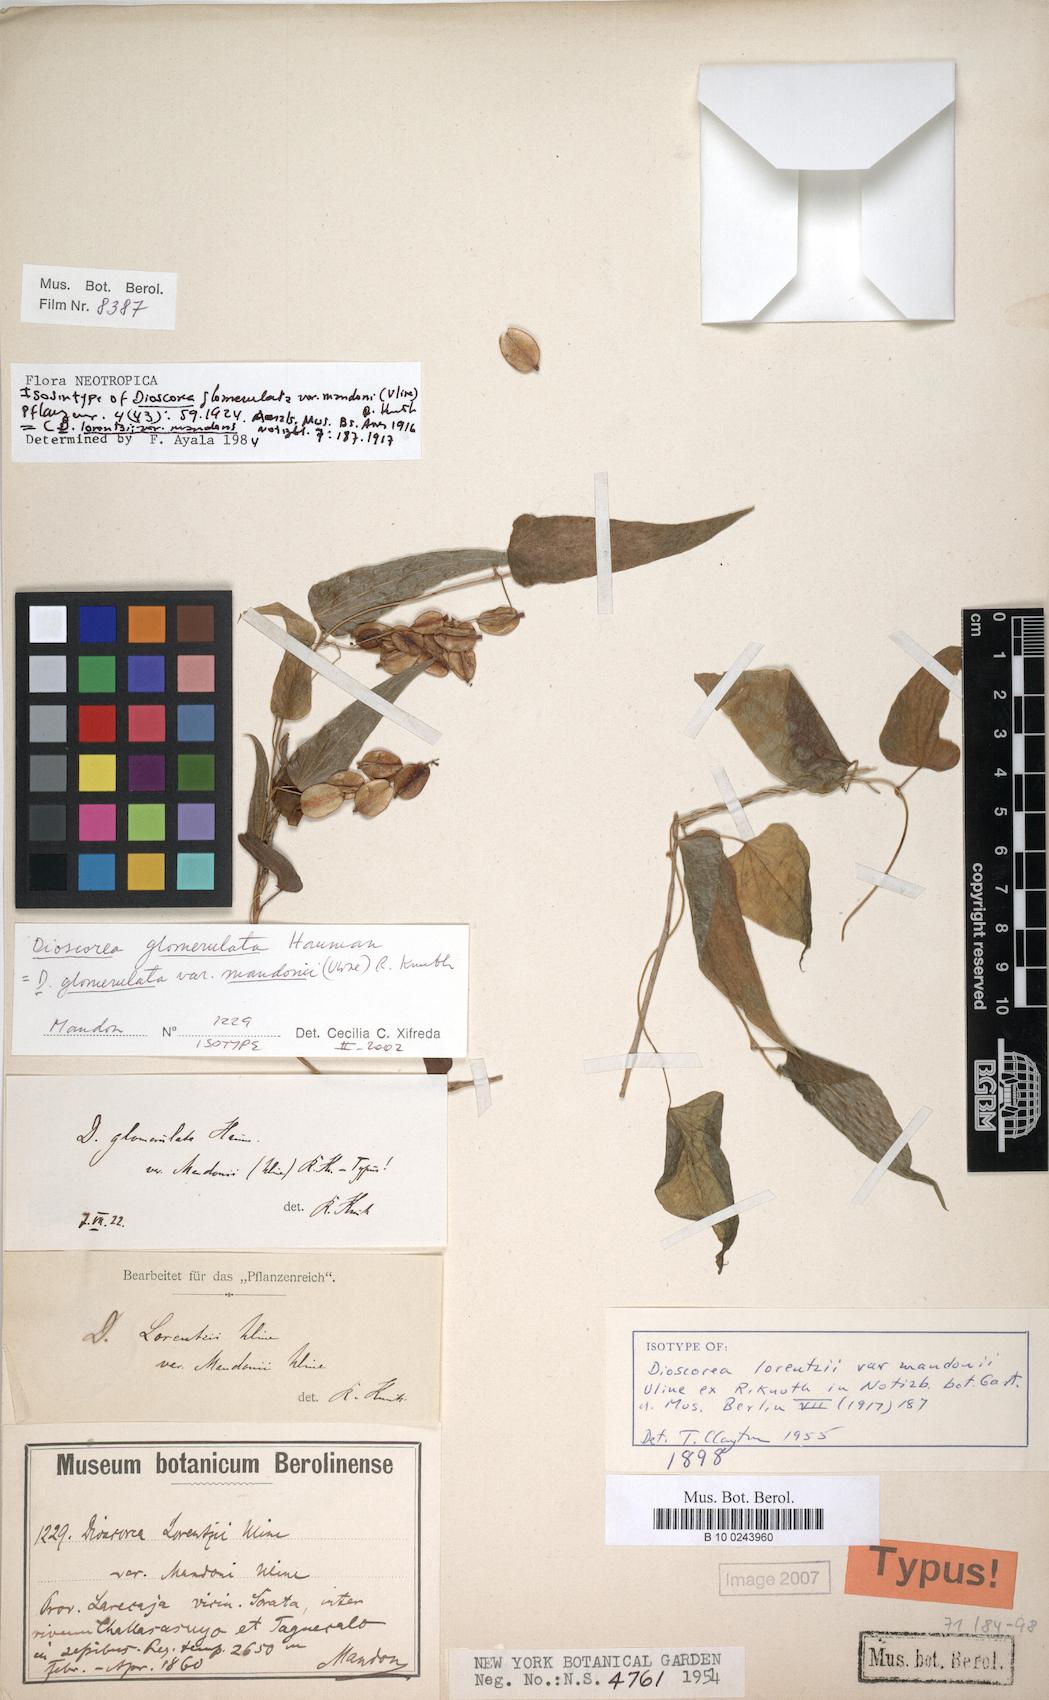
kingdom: Plantae
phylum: Tracheophyta
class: Liliopsida
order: Dioscoreales
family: Dioscoreaceae
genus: Dioscorea
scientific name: Dioscorea glomerulata
